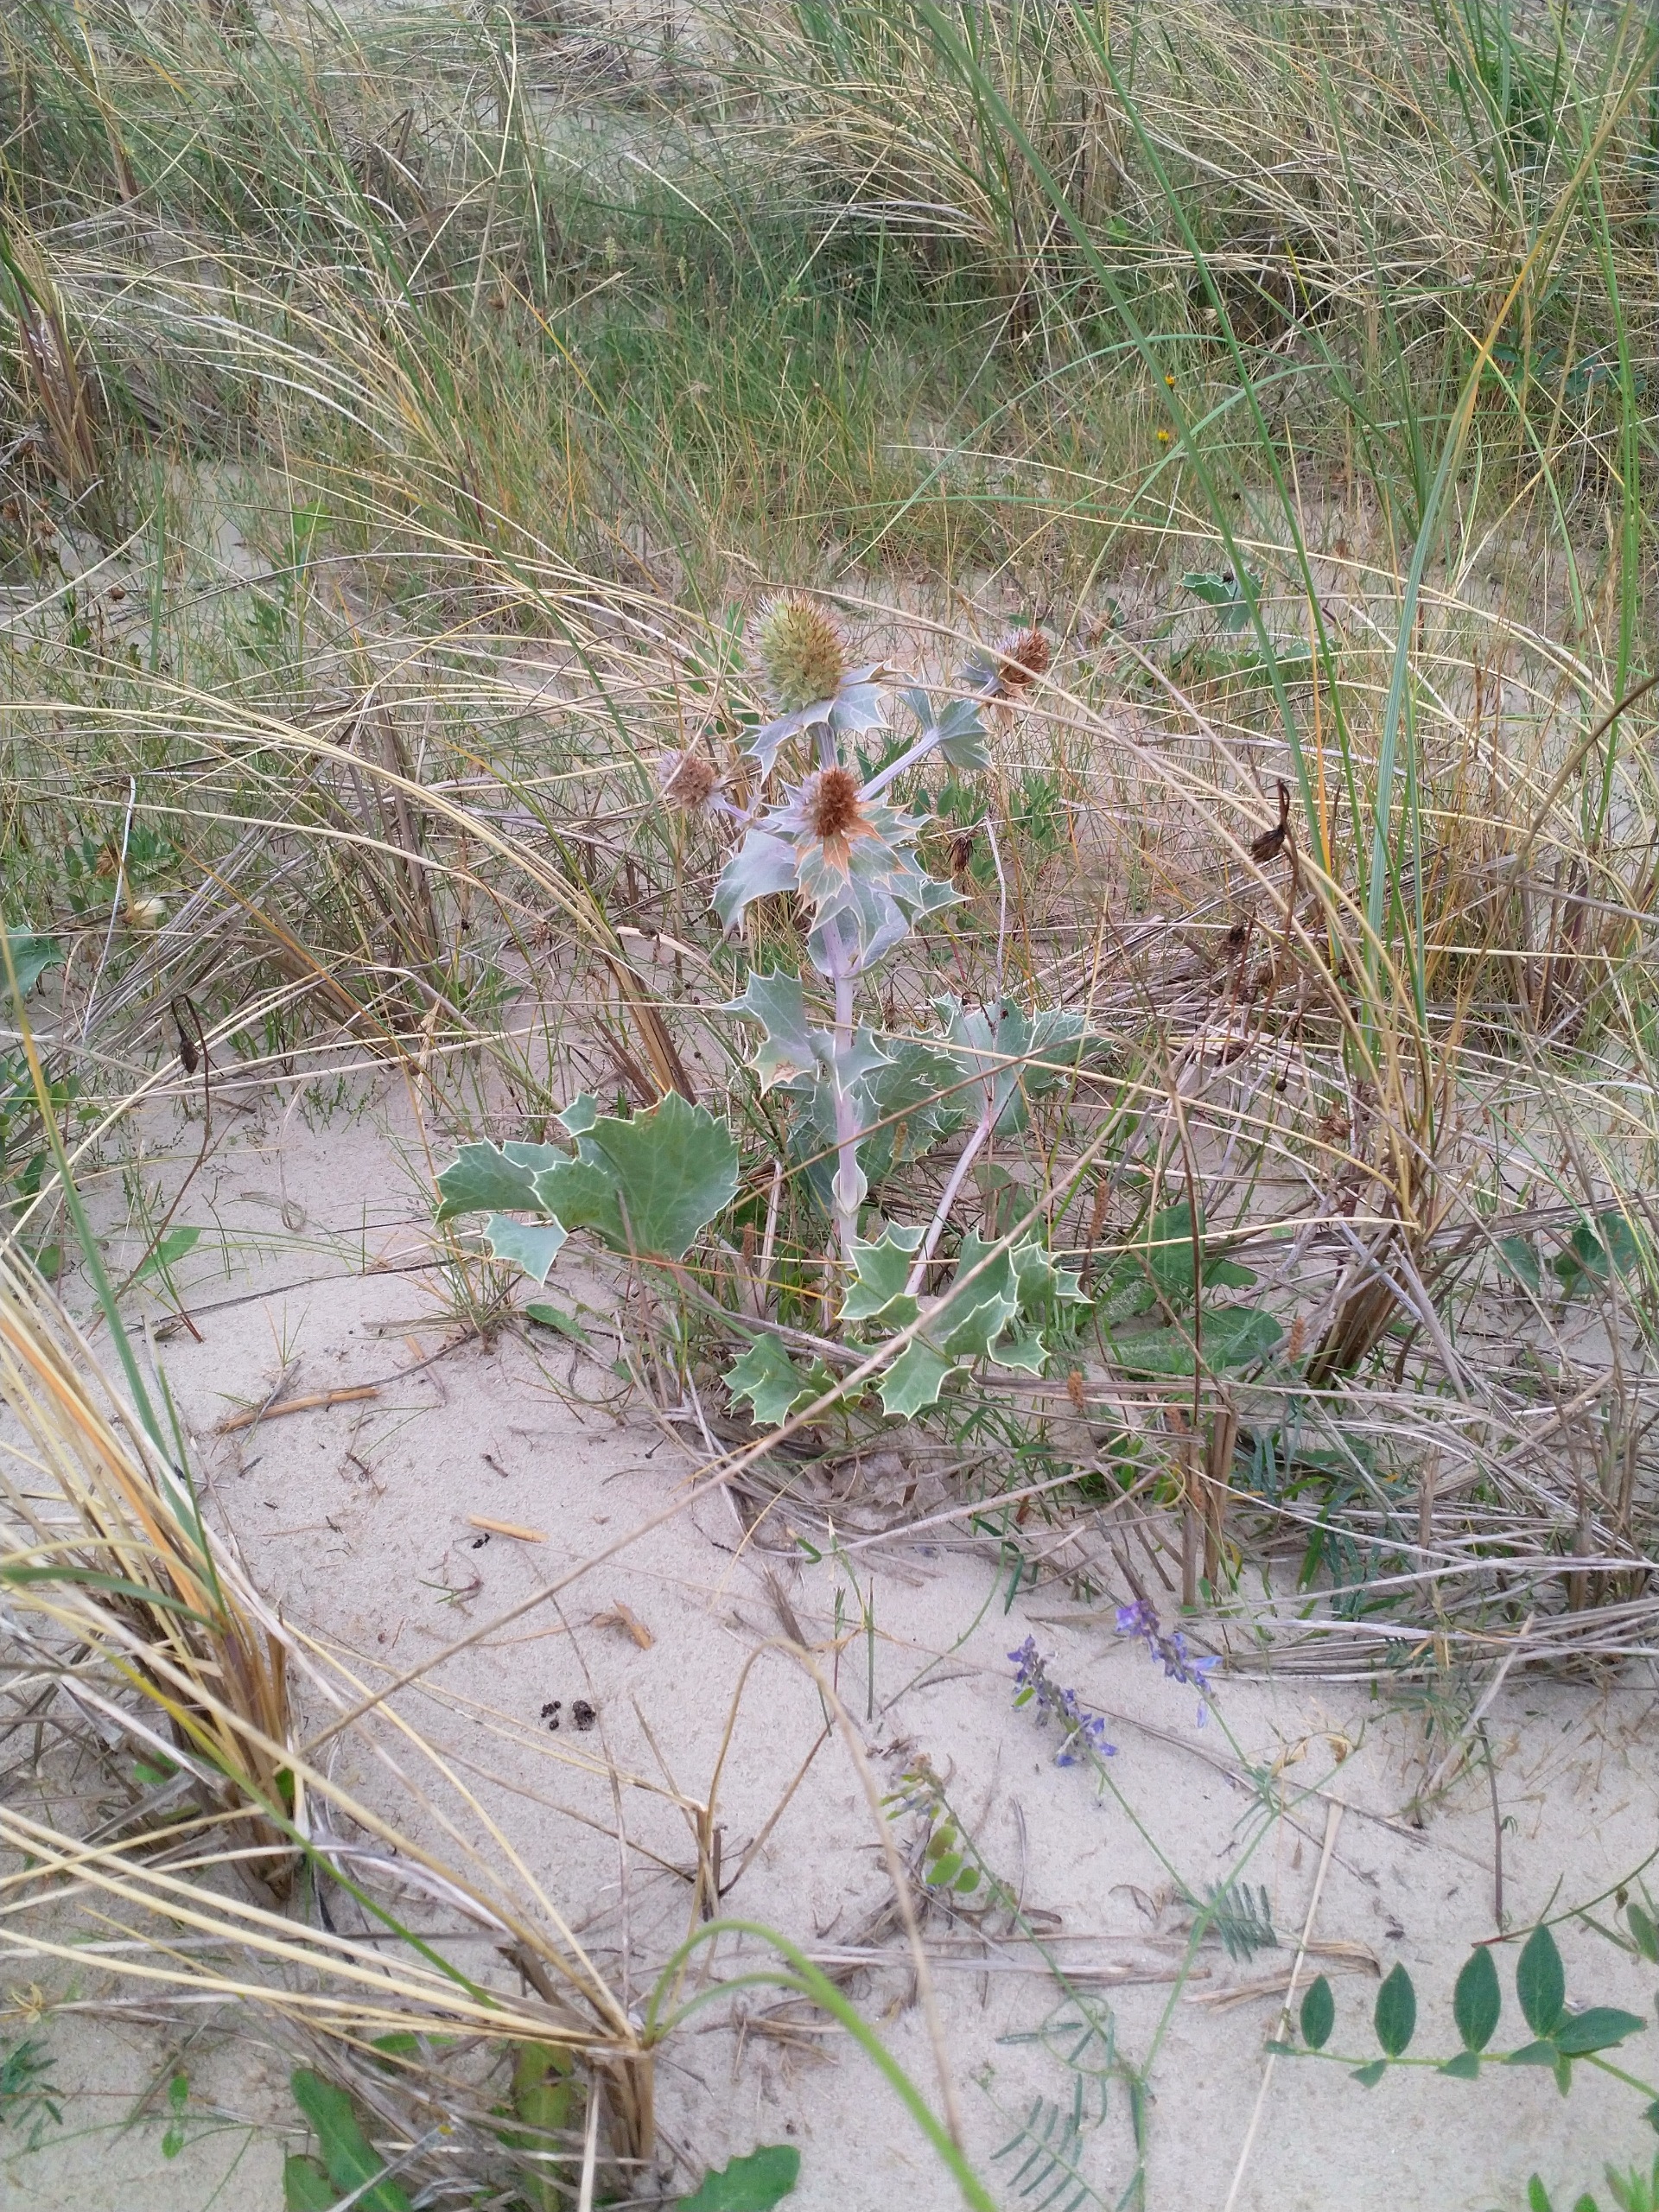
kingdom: Plantae
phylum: Tracheophyta
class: Magnoliopsida
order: Apiales
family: Apiaceae
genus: Eryngium
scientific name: Eryngium maritimum
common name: Strand-mandstro
